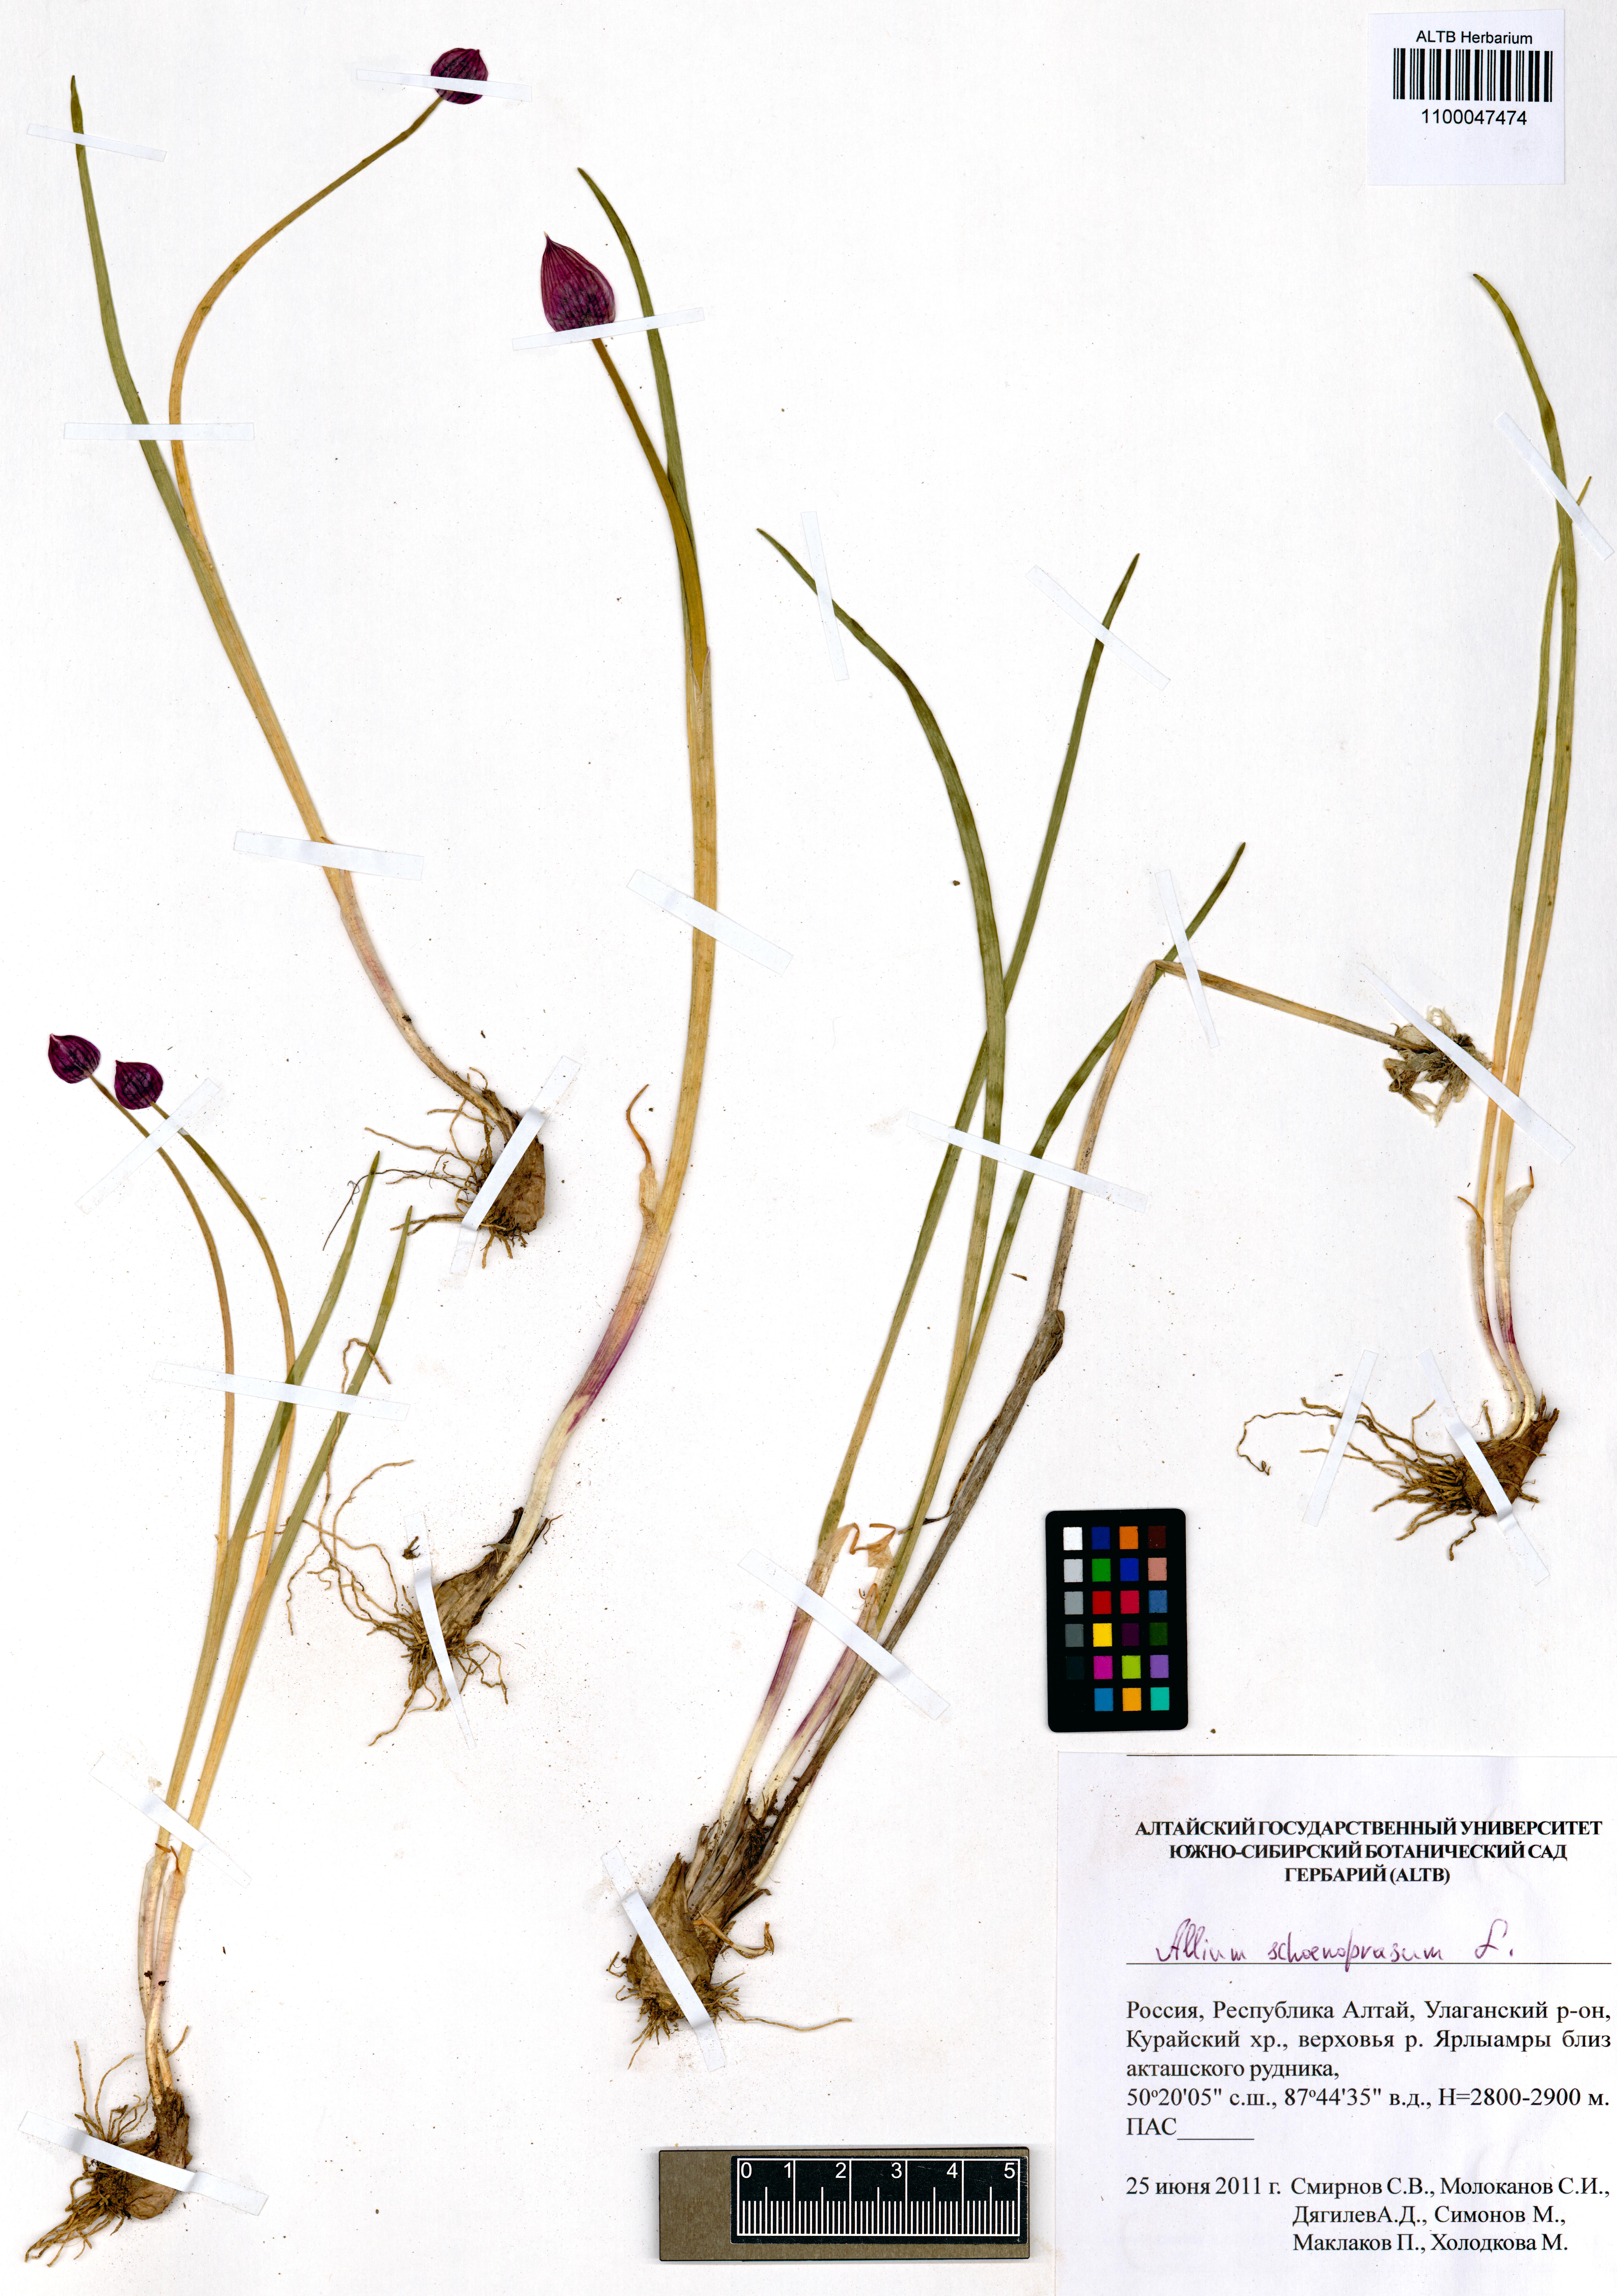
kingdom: Plantae
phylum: Tracheophyta
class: Liliopsida
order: Asparagales
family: Amaryllidaceae
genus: Allium
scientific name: Allium schoenoprasum
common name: Chives
